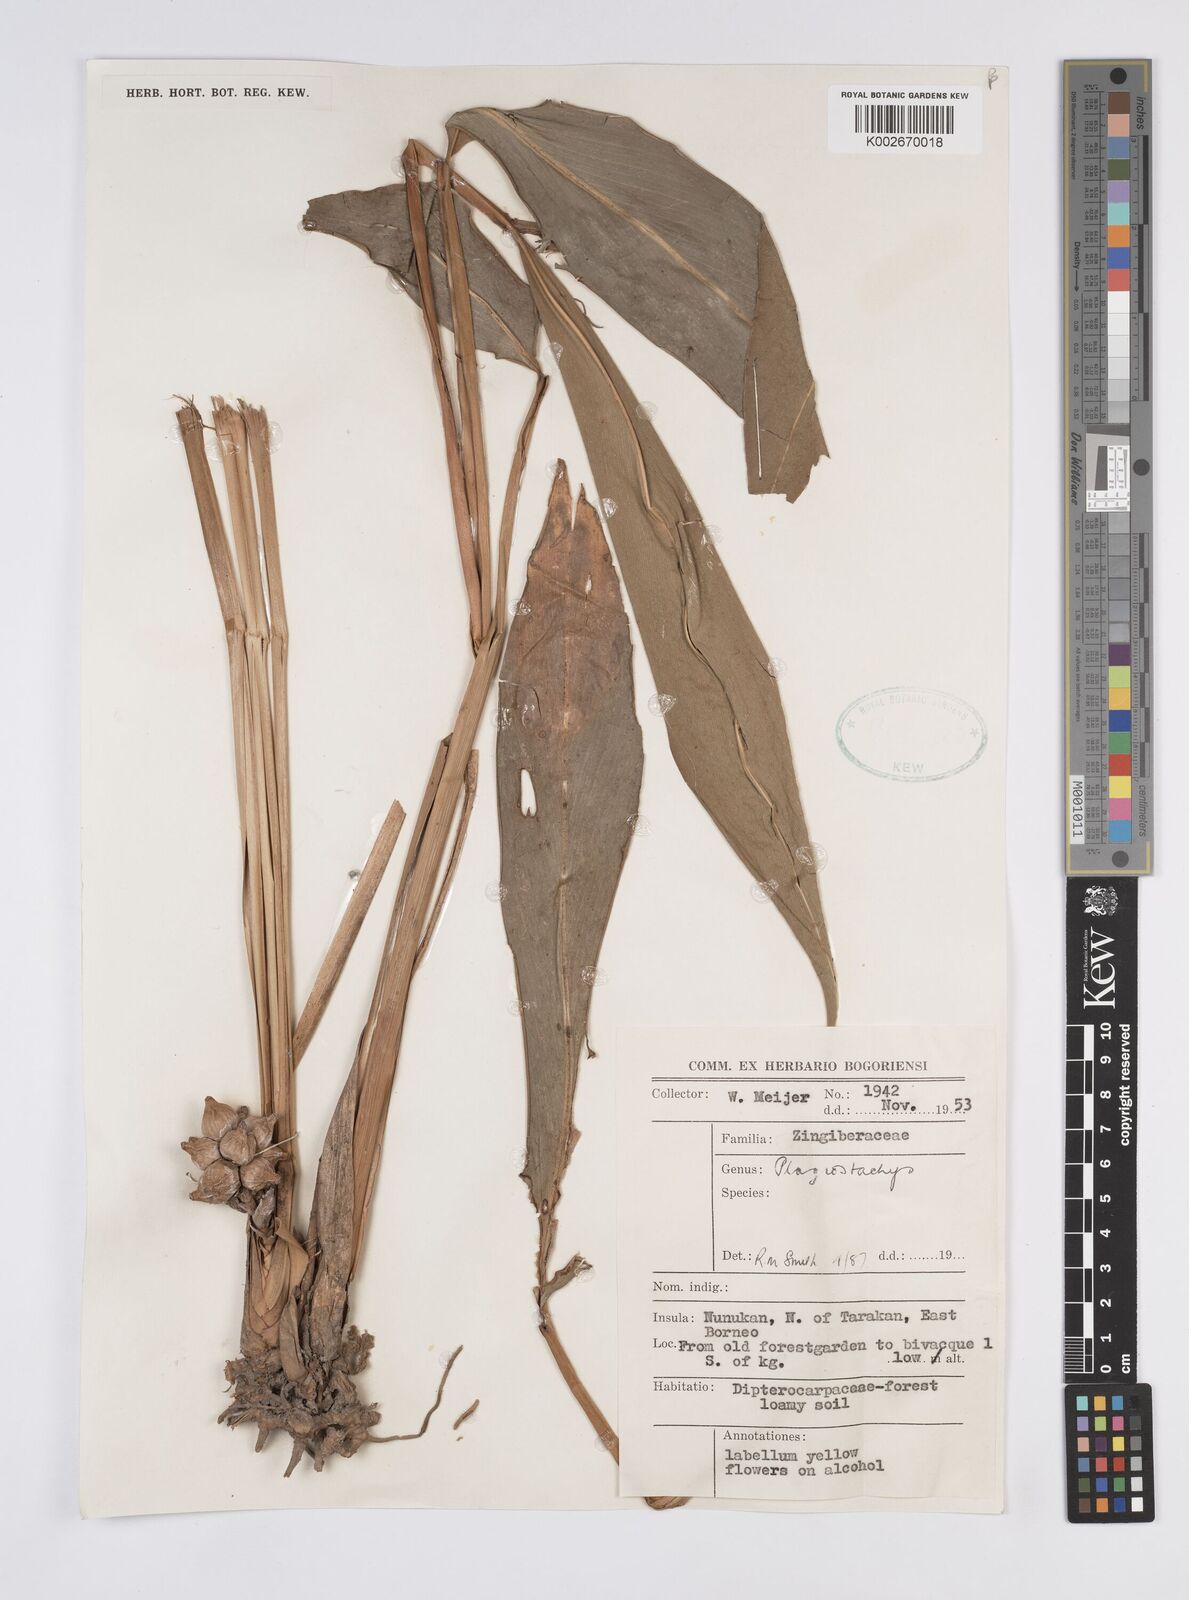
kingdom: Plantae
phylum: Tracheophyta
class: Liliopsida
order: Zingiberales
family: Zingiberaceae
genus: Plagiostachys
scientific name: Plagiostachys
